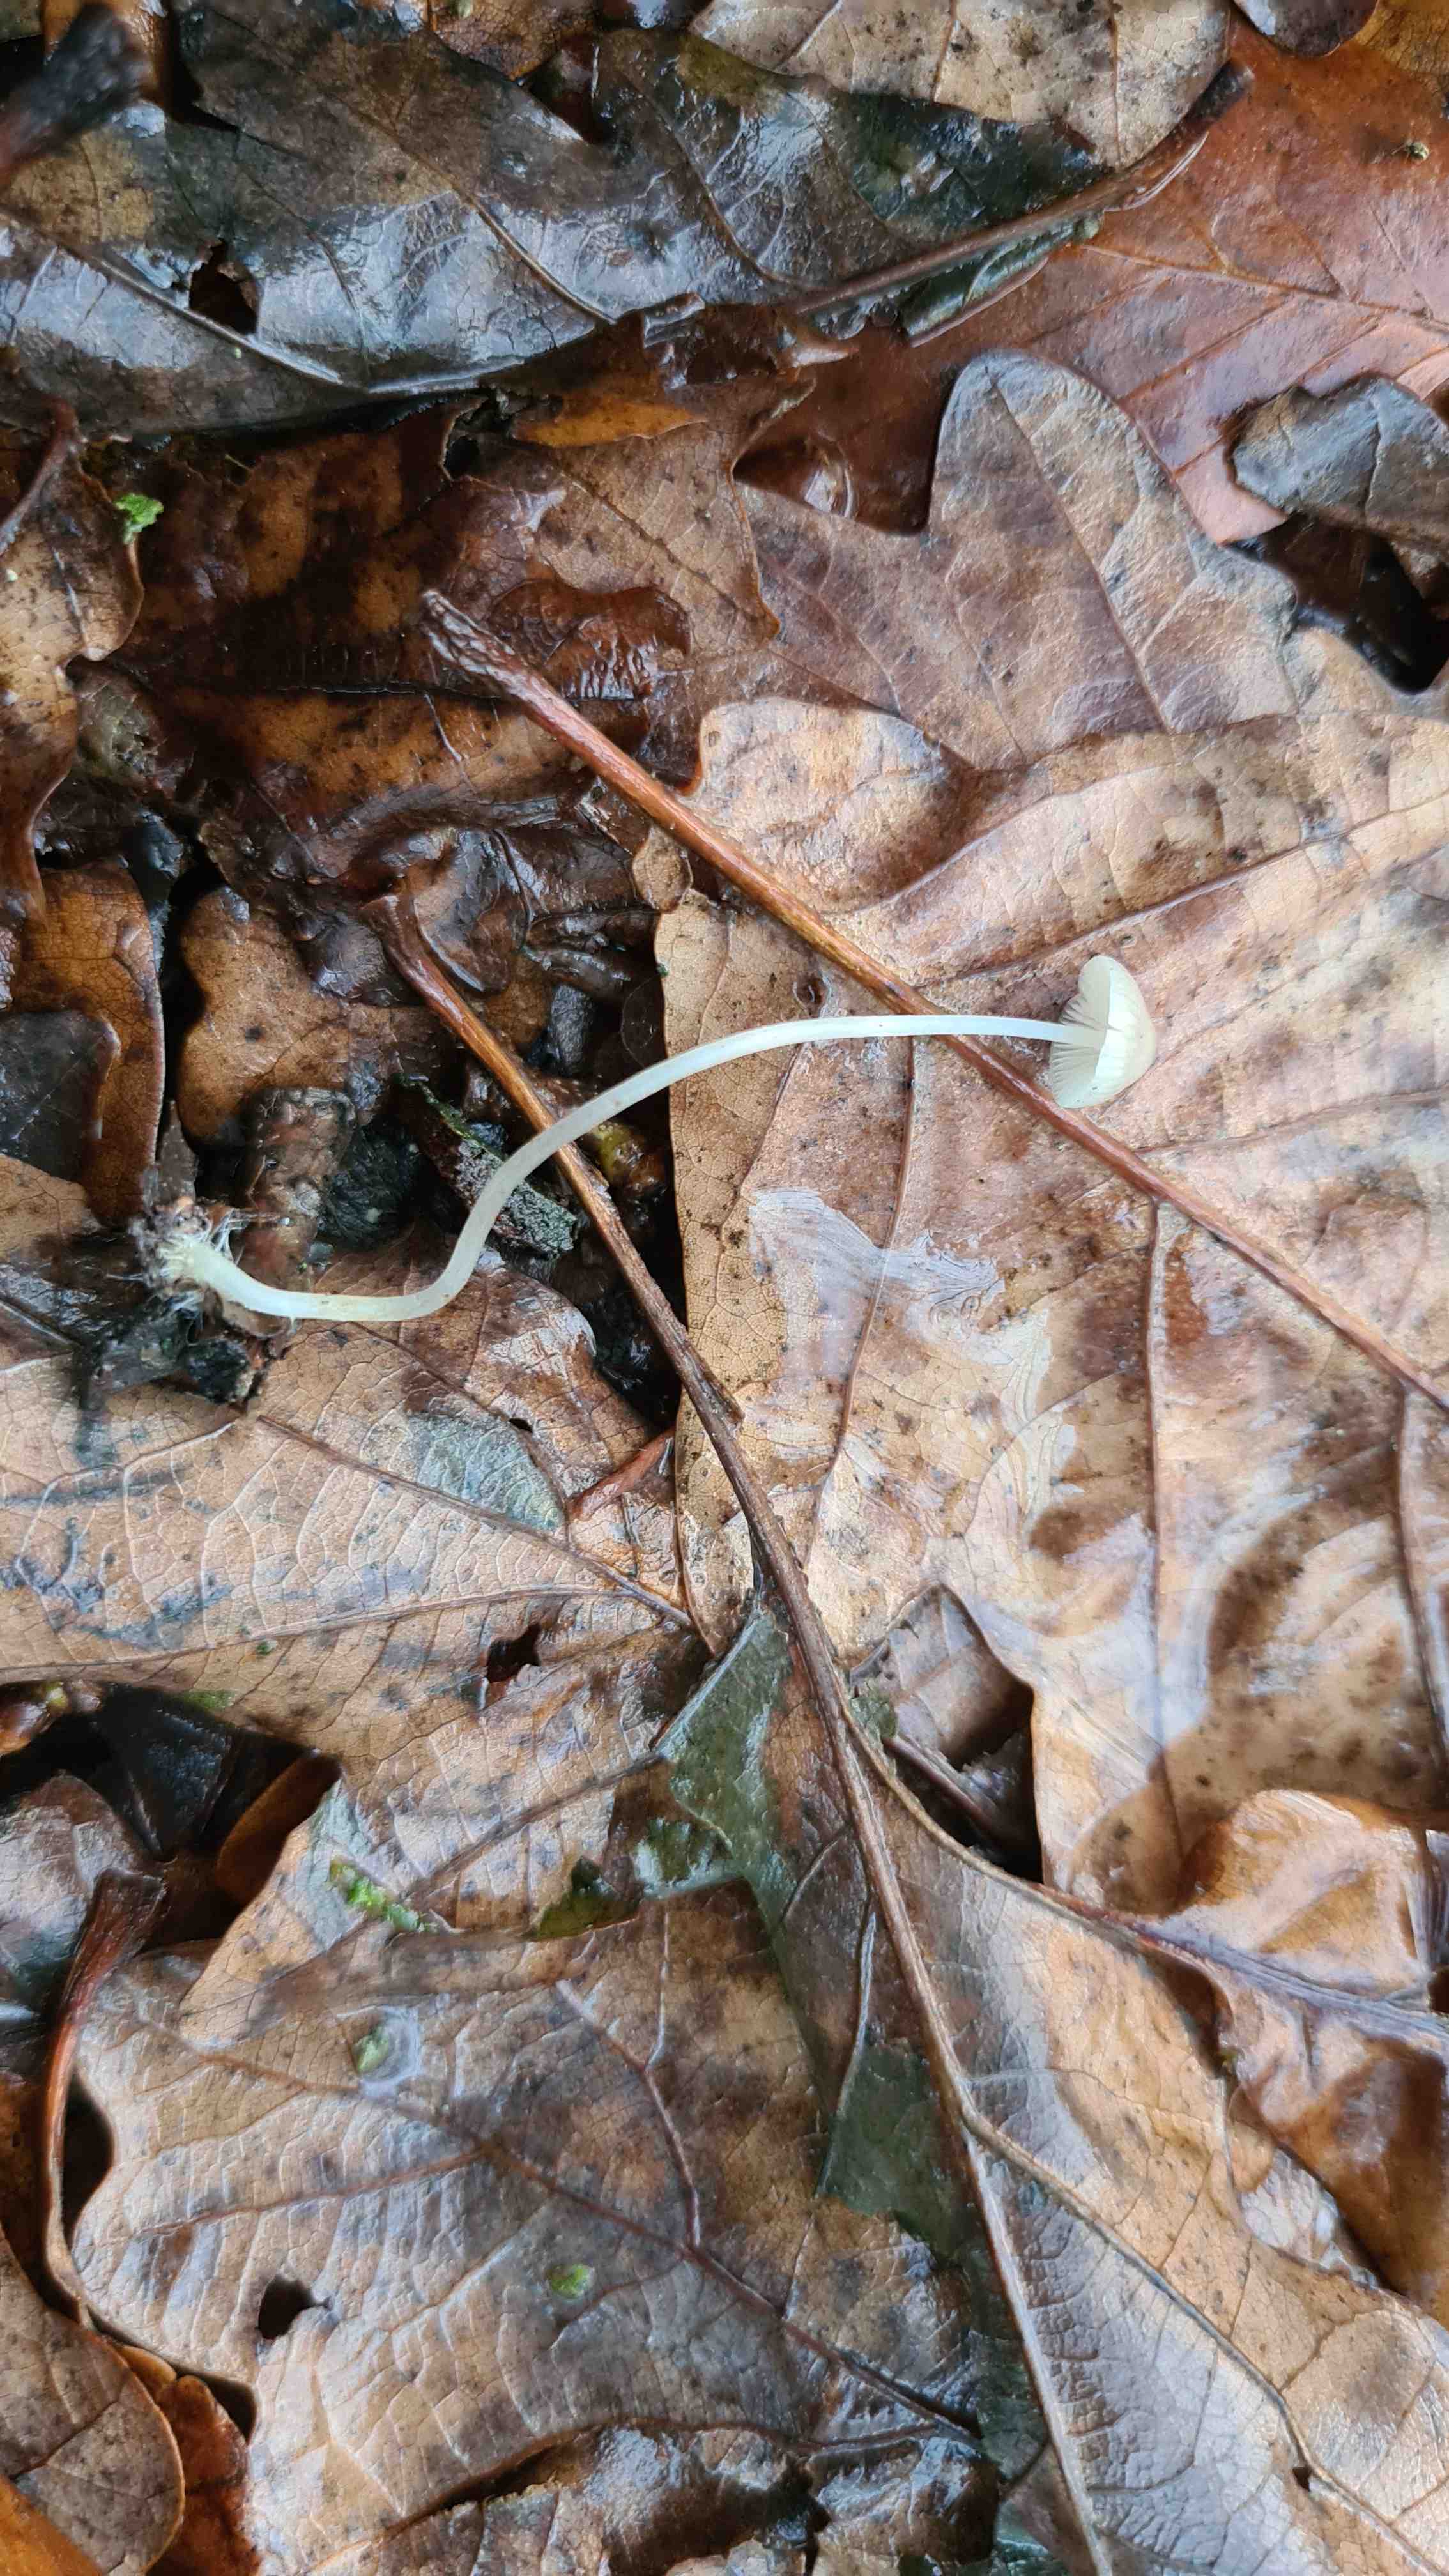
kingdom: Fungi
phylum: Basidiomycota
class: Agaricomycetes
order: Agaricales
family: Mycenaceae
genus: Mycena
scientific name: Mycena vitilis
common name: blankstokket huesvamp
